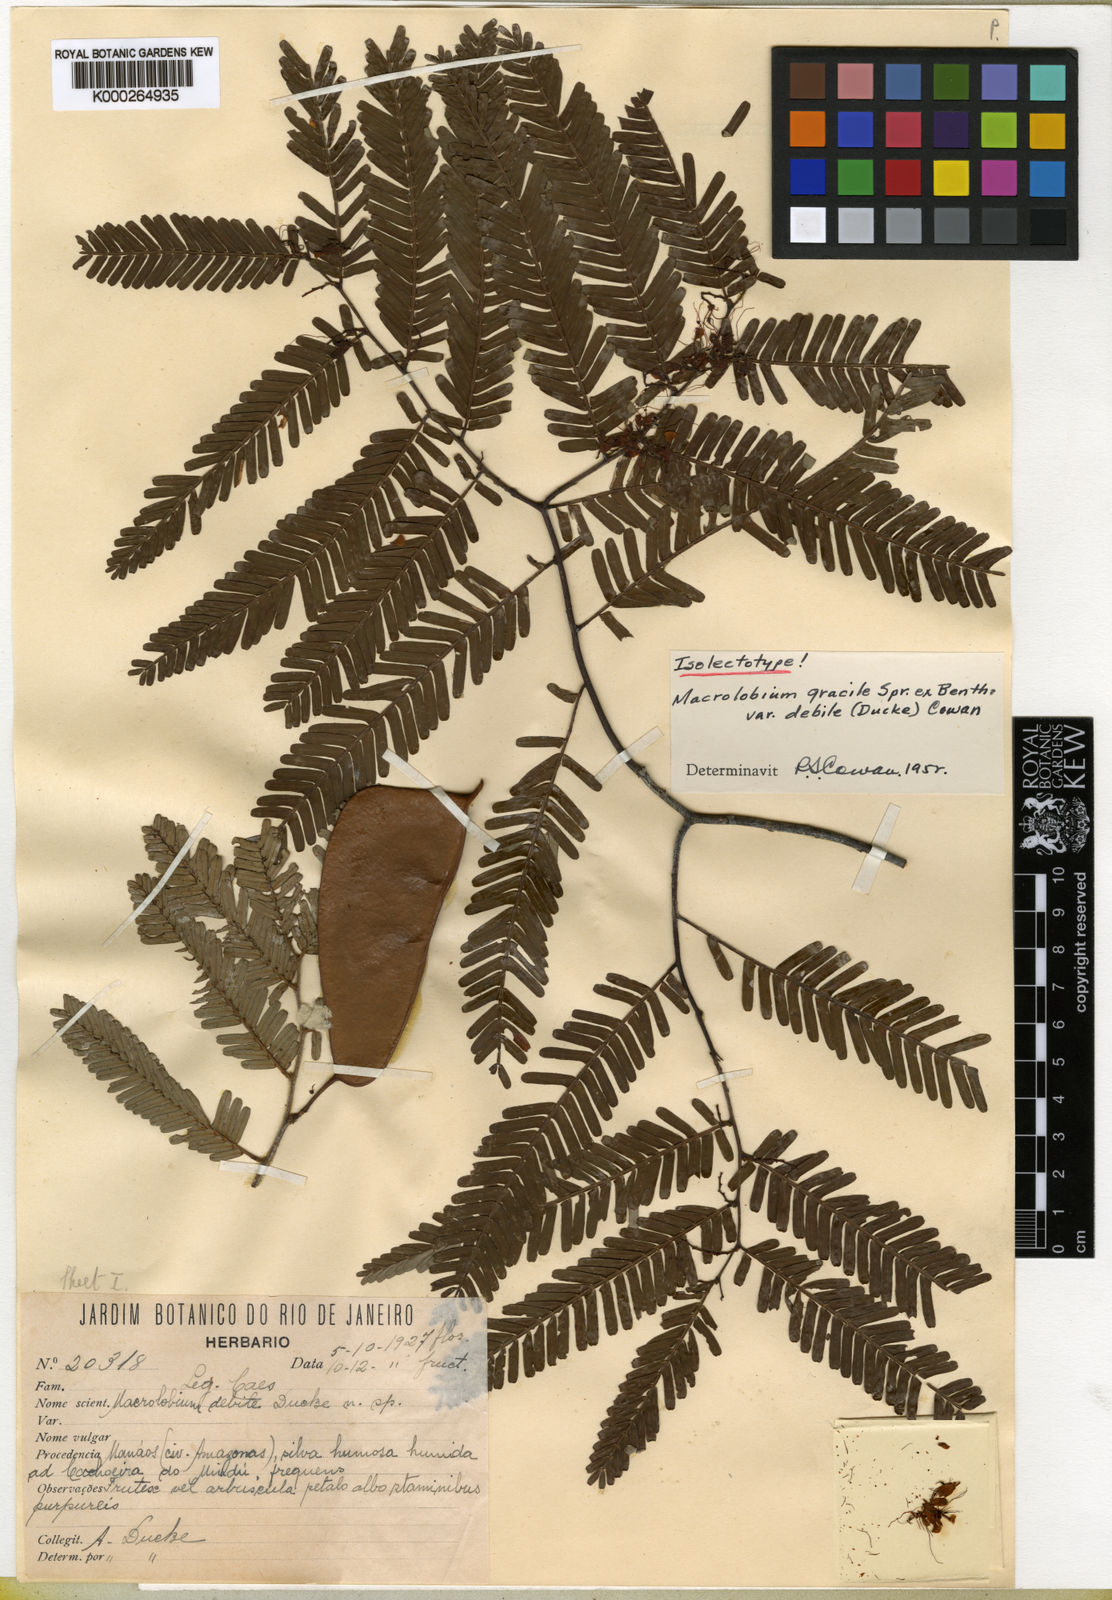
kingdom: Plantae
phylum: Tracheophyta
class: Magnoliopsida
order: Fabales
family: Fabaceae
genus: Macrolobium
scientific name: Macrolobium gracile
